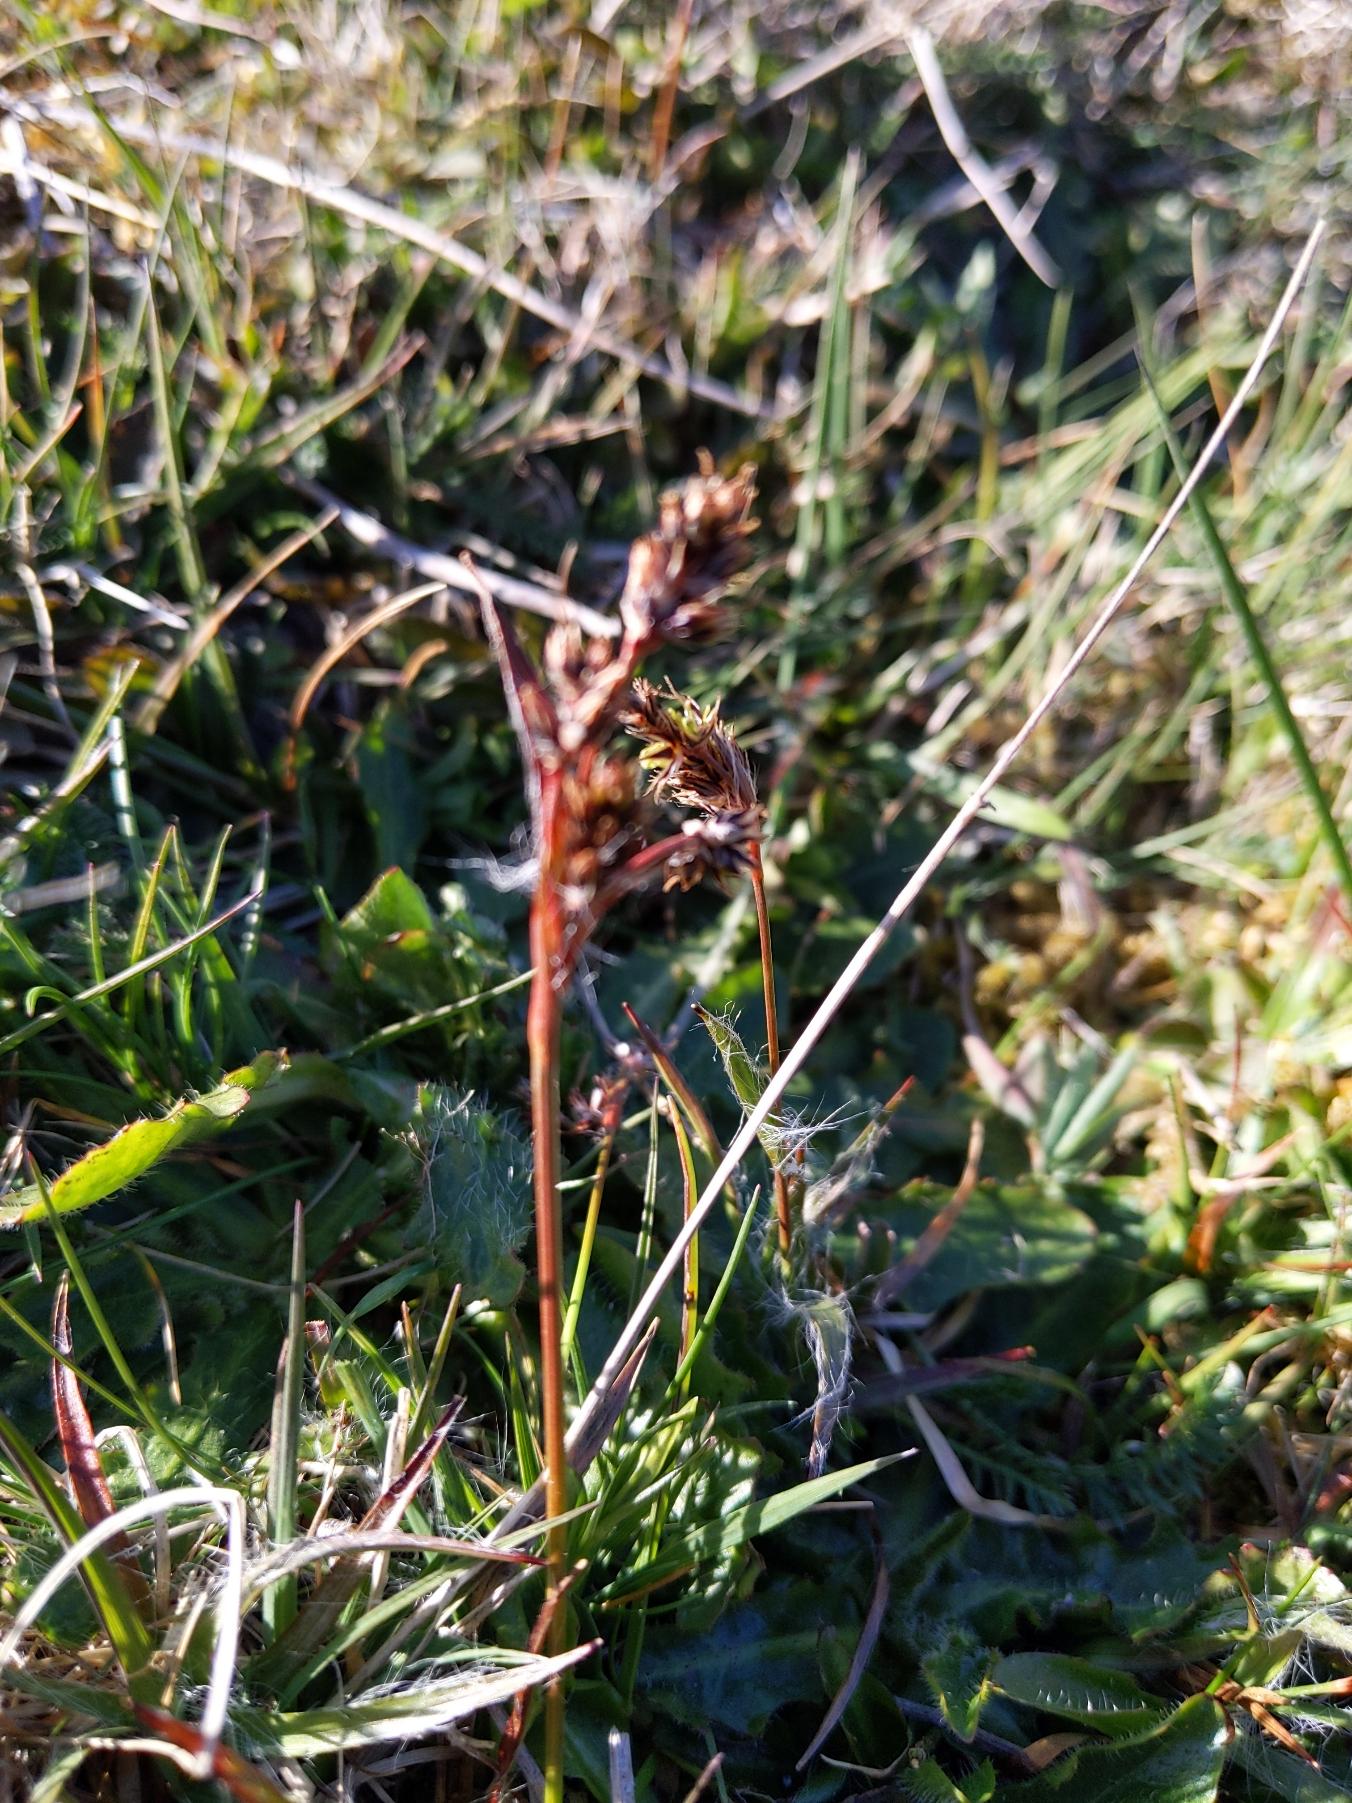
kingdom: Plantae
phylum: Tracheophyta
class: Liliopsida
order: Poales
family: Juncaceae
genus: Luzula
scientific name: Luzula campestris
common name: Mark-frytle
